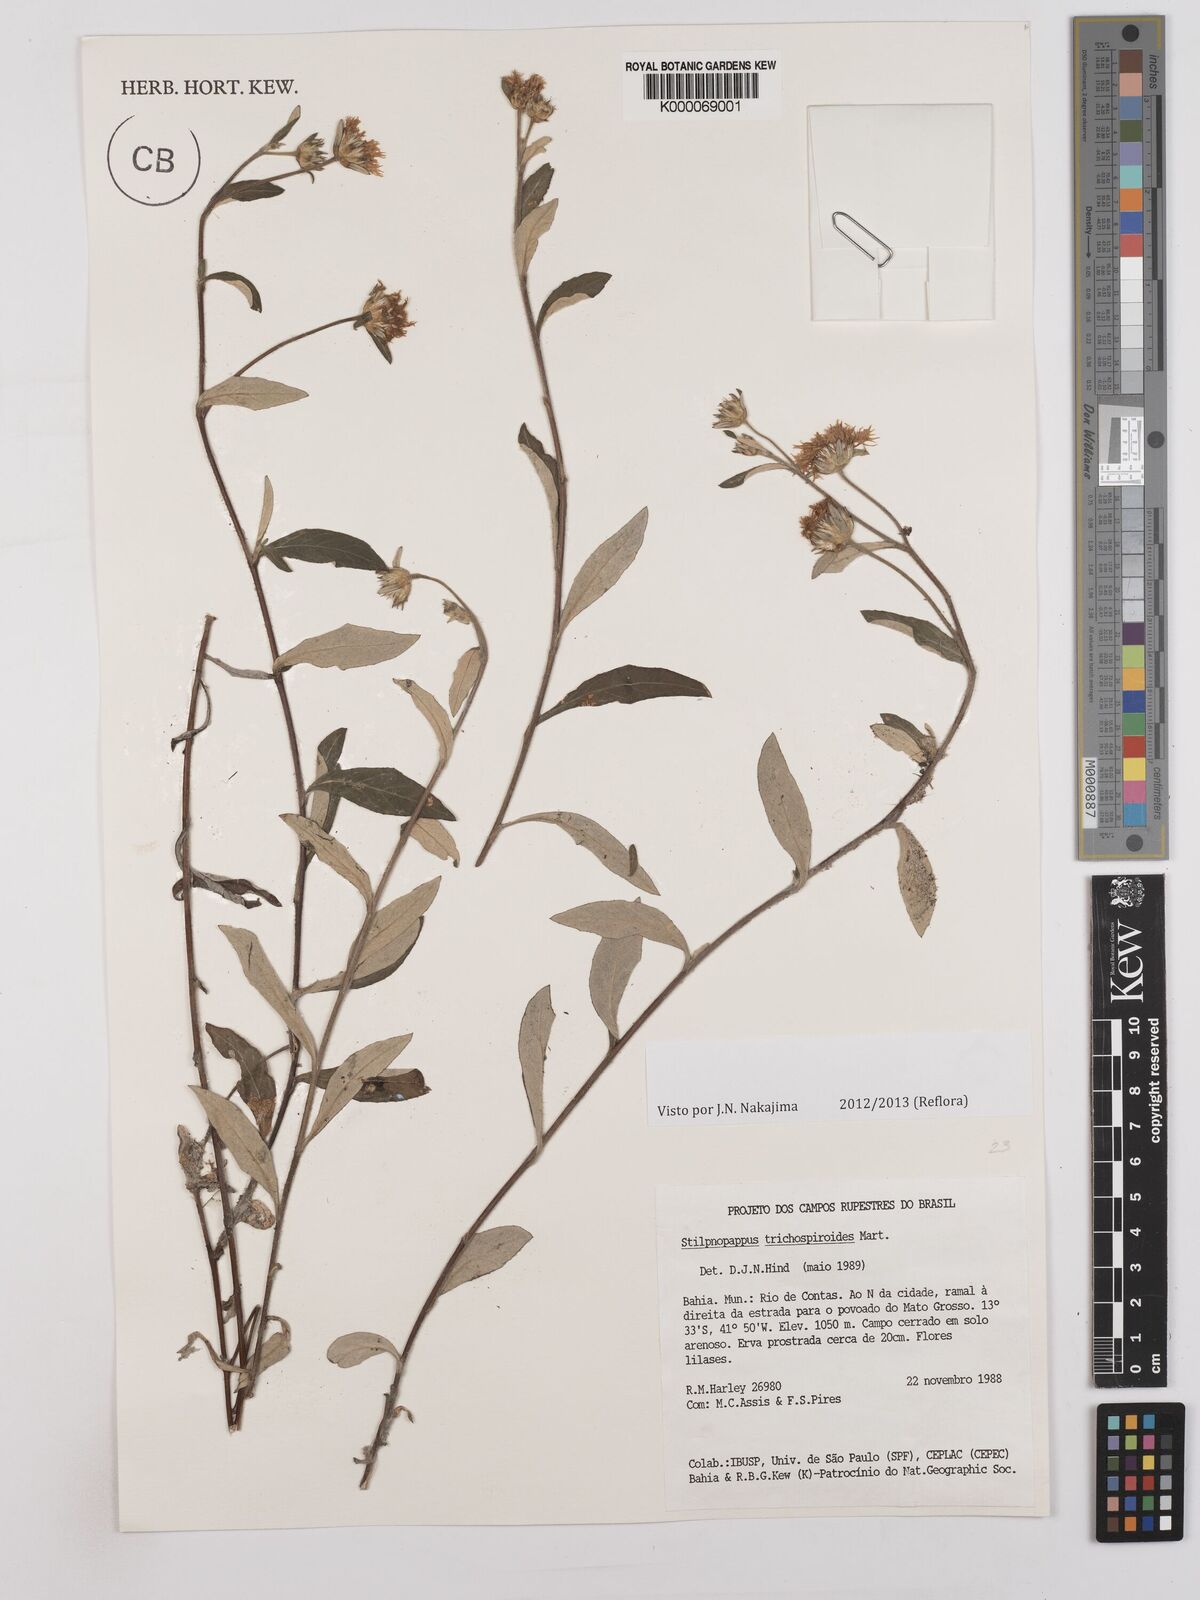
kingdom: Plantae
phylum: Tracheophyta
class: Magnoliopsida
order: Asterales
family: Asteraceae
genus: Stilpnopappus
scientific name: Stilpnopappus
